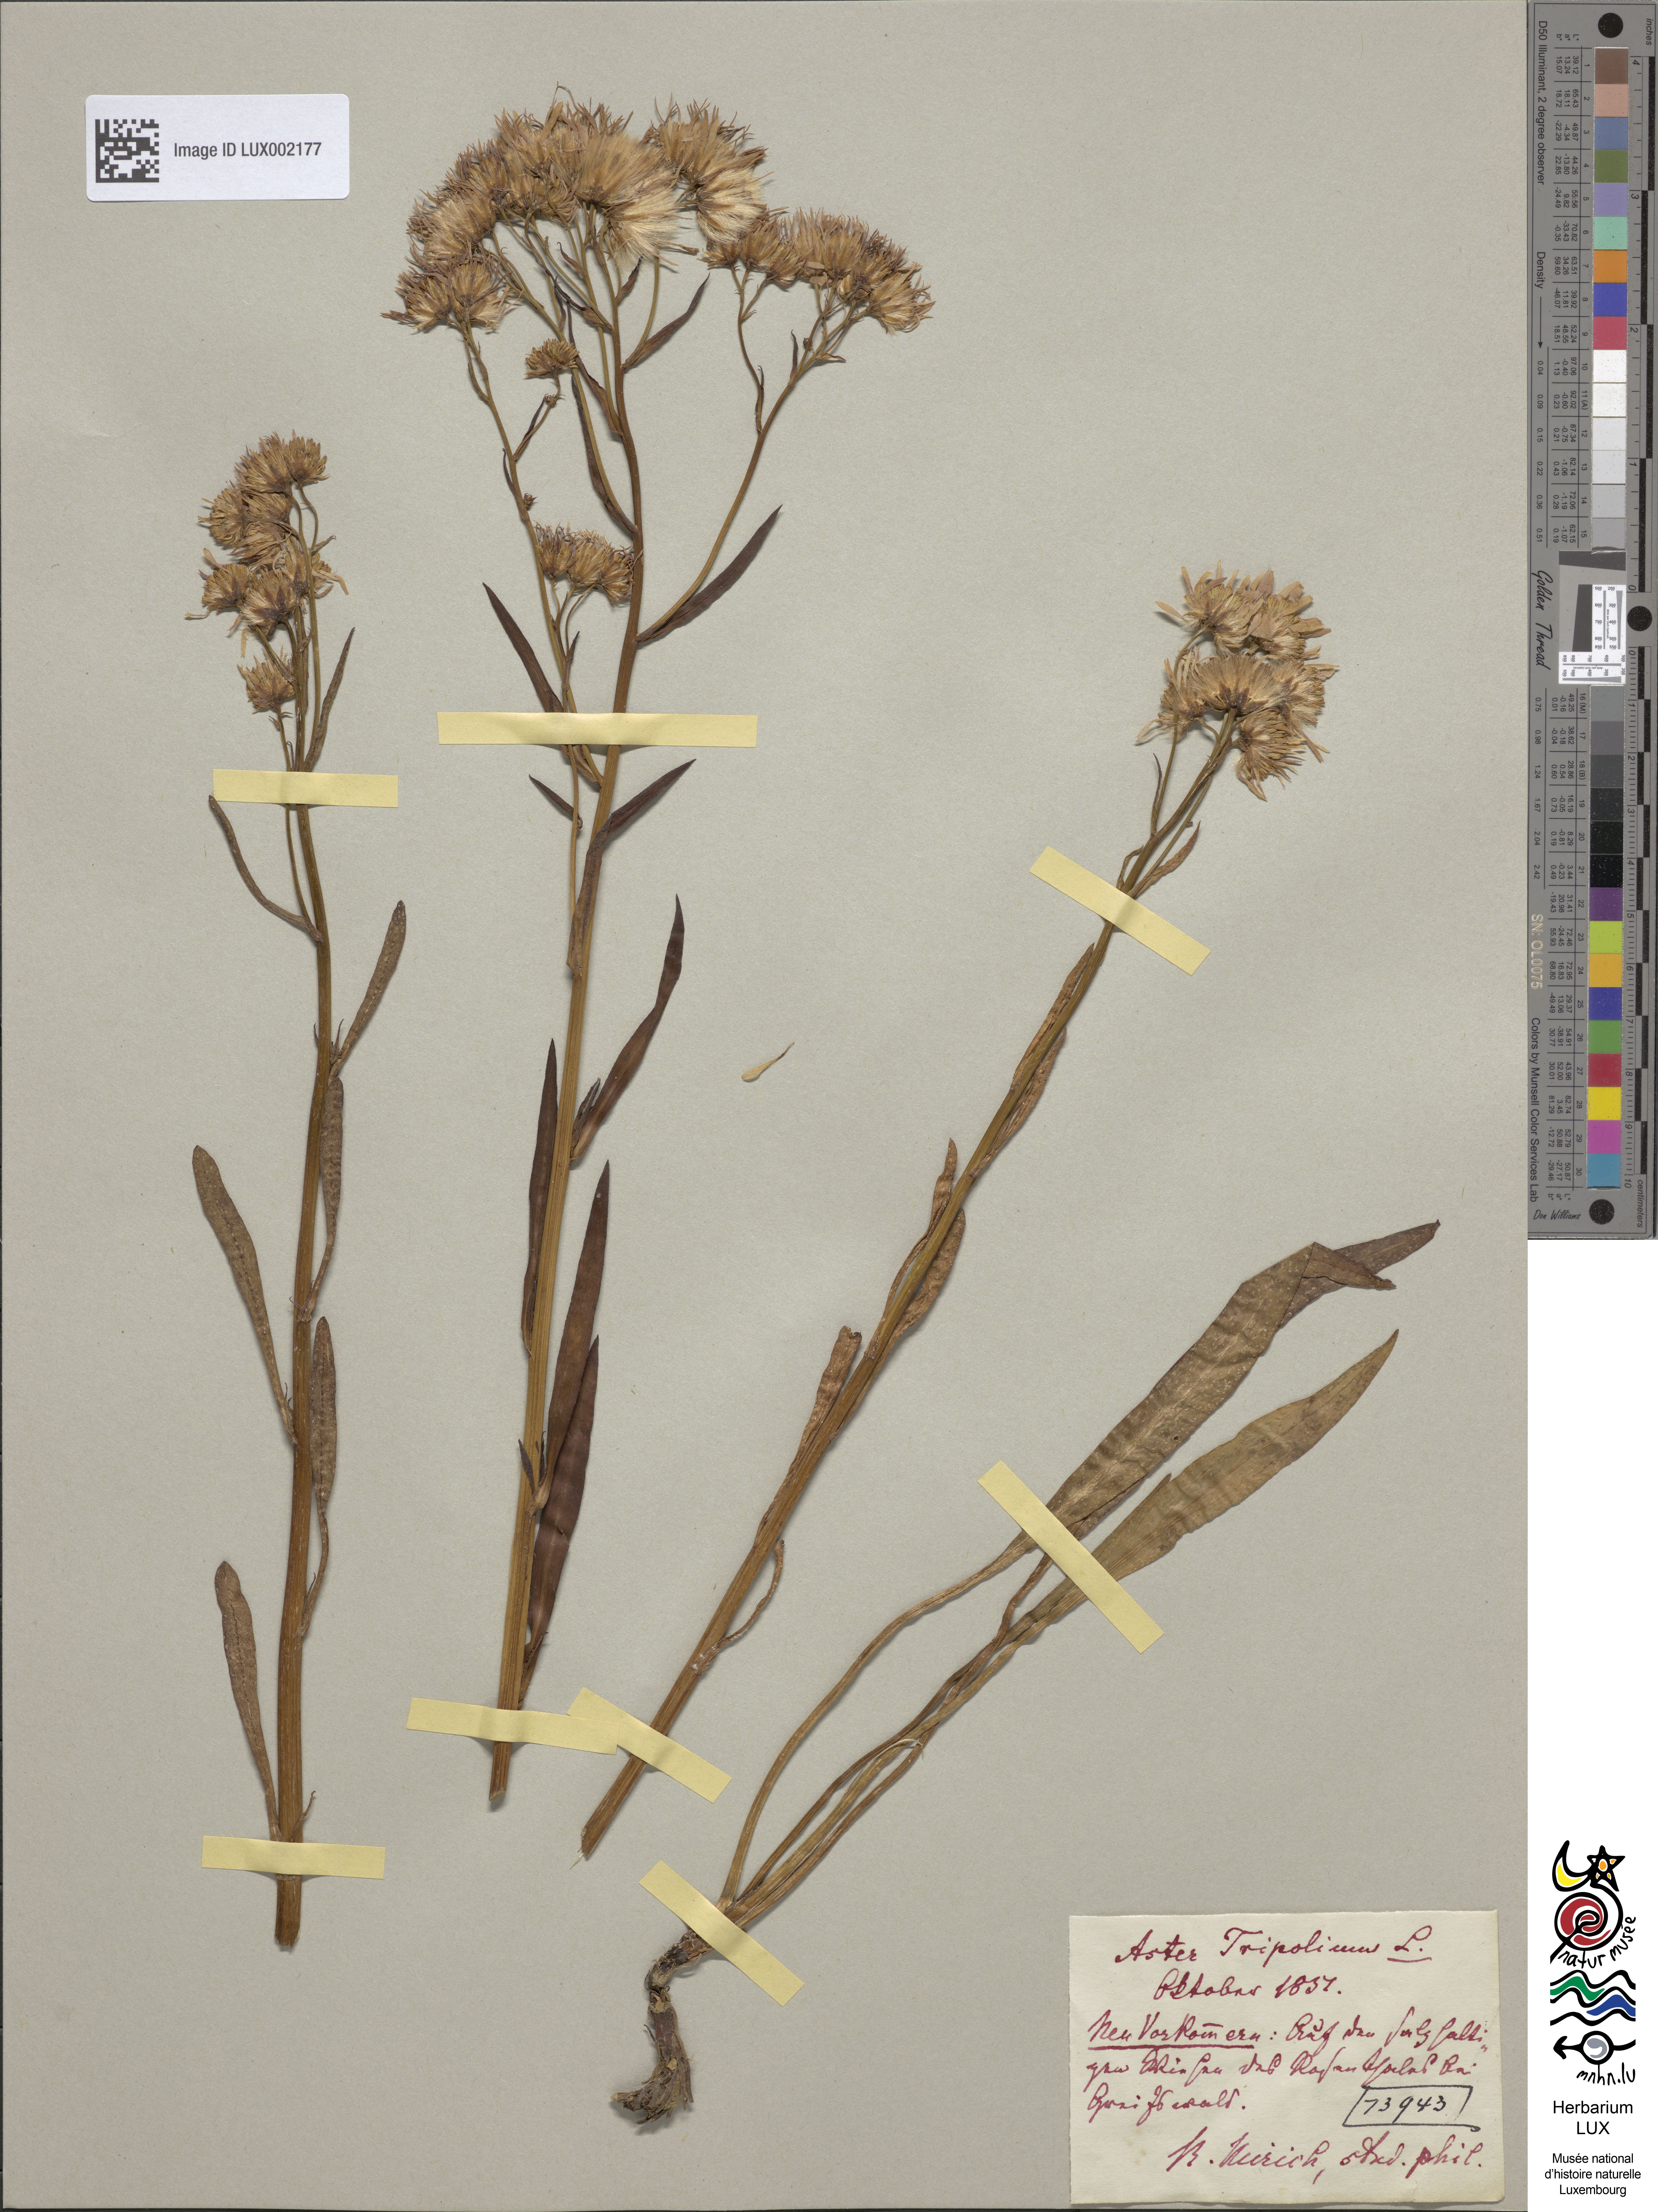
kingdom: Plantae
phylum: Tracheophyta
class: Magnoliopsida
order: Asterales
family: Asteraceae
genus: Tripolium
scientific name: Tripolium pannonicum
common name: Sea aster
